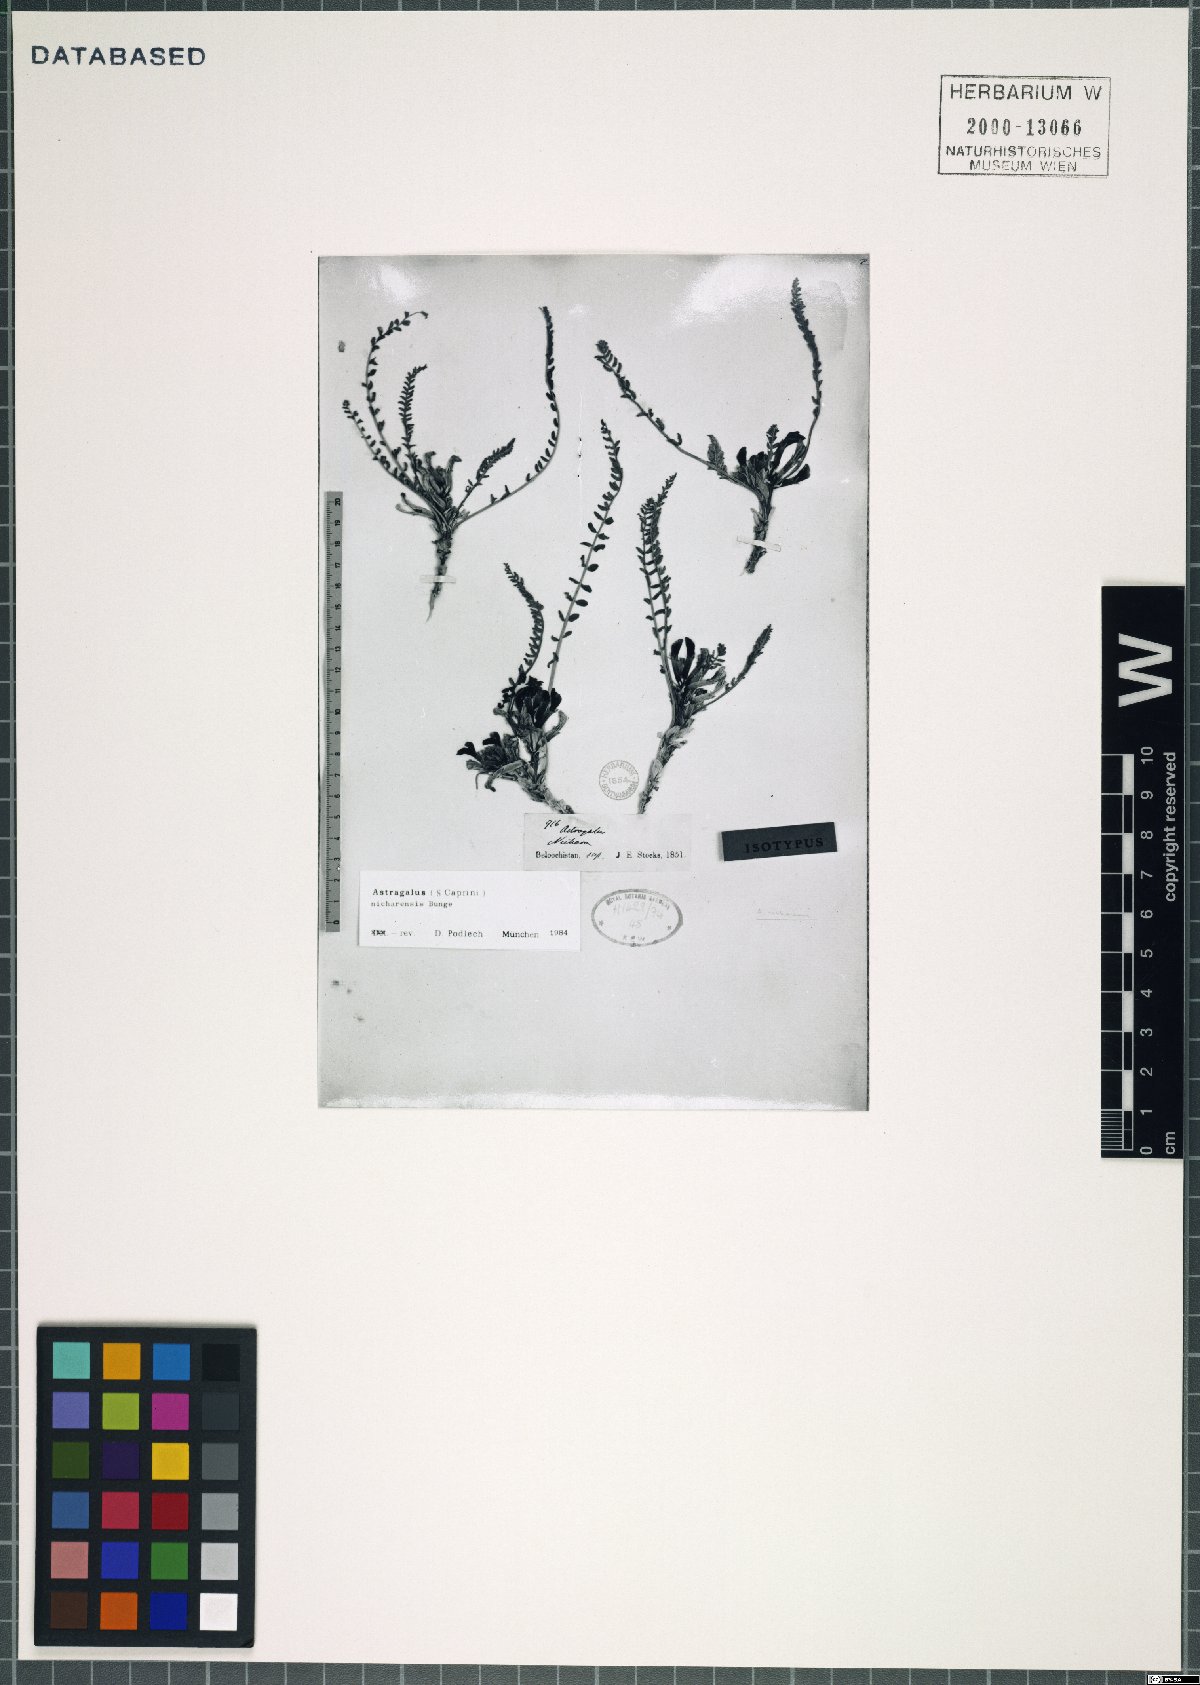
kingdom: Plantae
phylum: Tracheophyta
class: Magnoliopsida
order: Fabales
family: Fabaceae
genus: Astragalus
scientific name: Astragalus nicharensis
